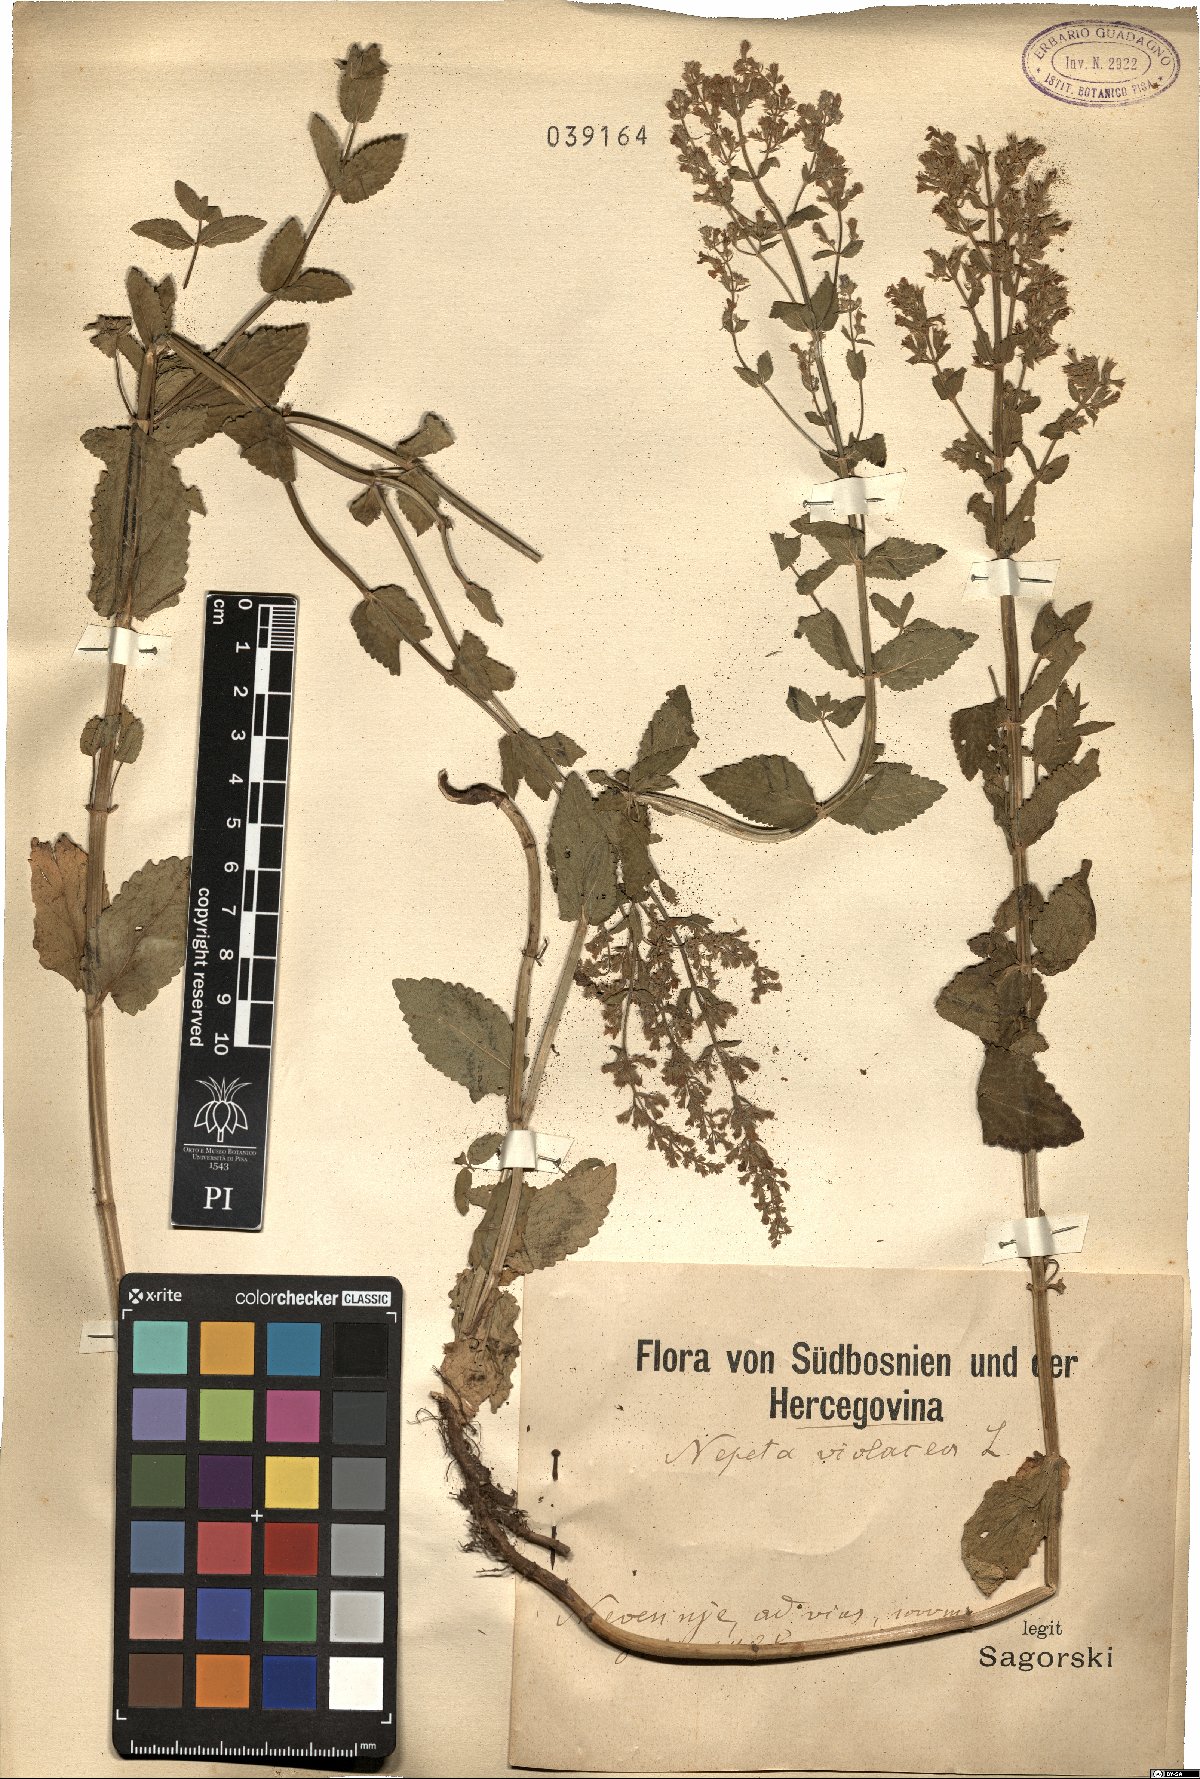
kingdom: Plantae
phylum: Tracheophyta
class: Magnoliopsida
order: Lamiales
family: Lamiaceae
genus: Nepeta
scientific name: Nepeta nuda
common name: Hairless catmint
